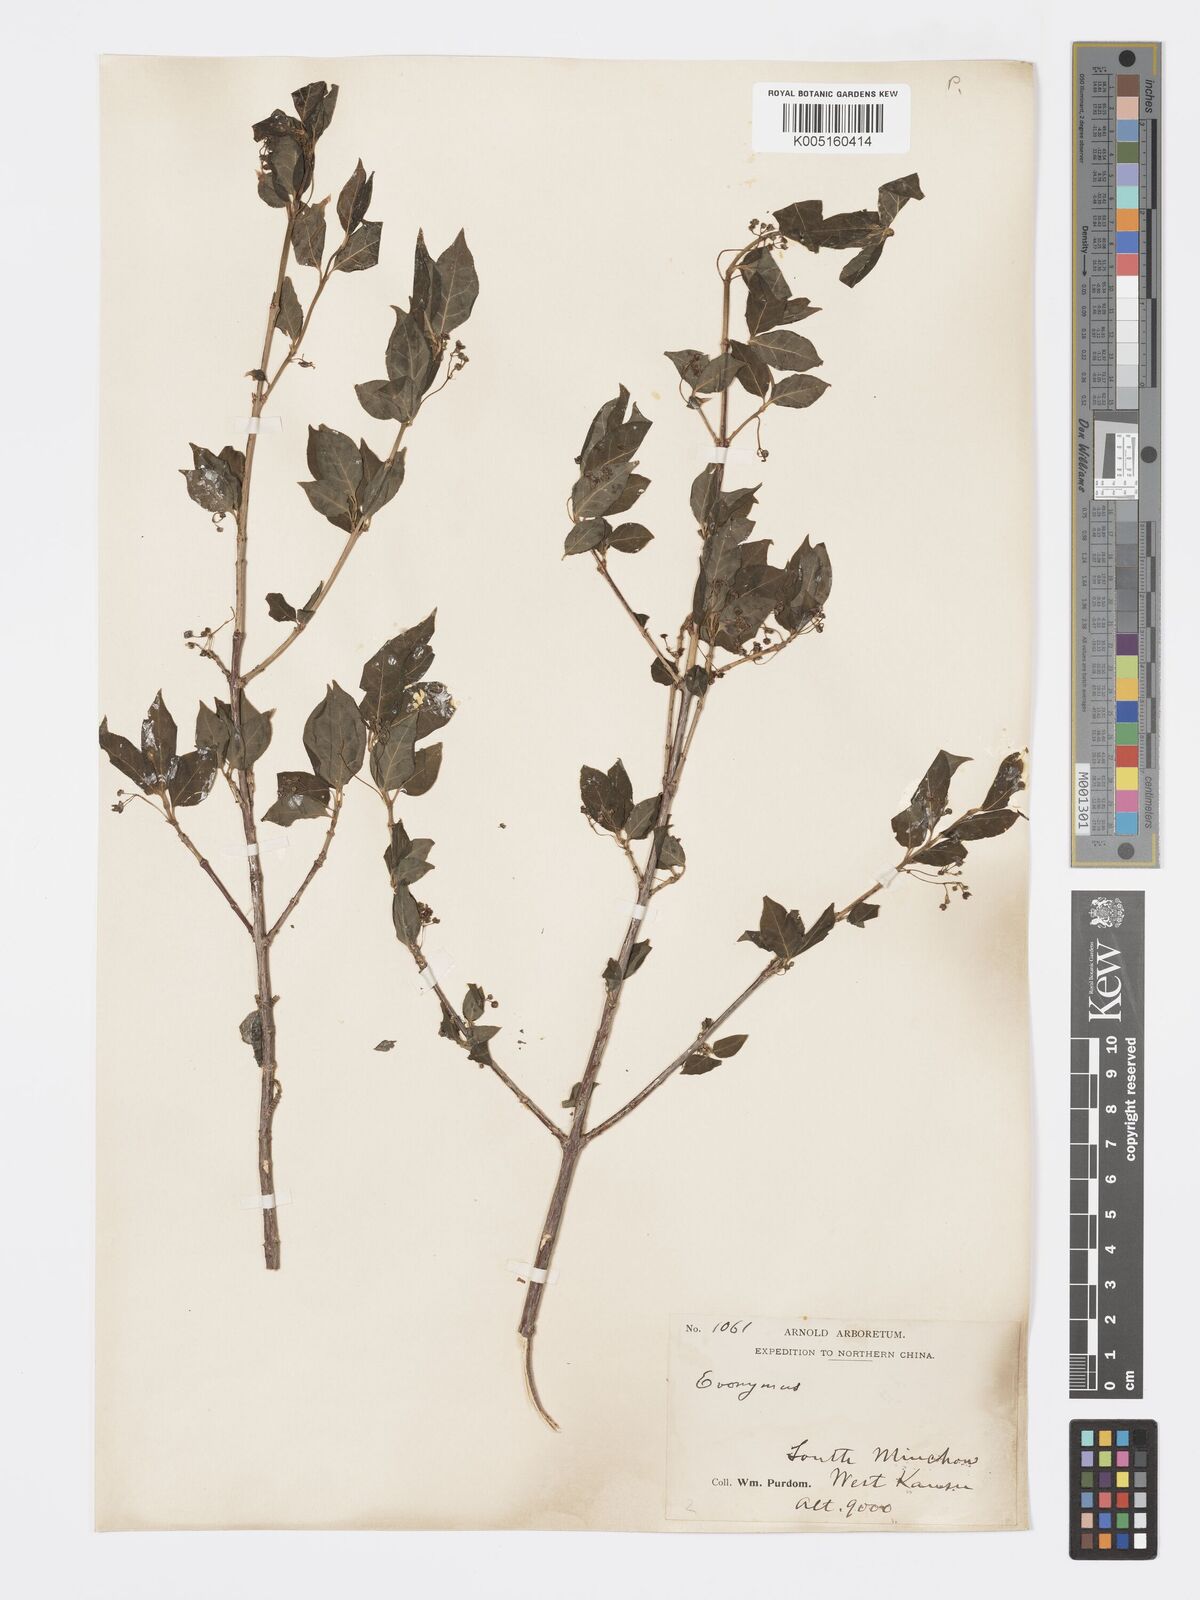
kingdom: Plantae
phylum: Tracheophyta
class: Magnoliopsida
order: Celastrales
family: Celastraceae
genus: Euonymus
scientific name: Euonymus
